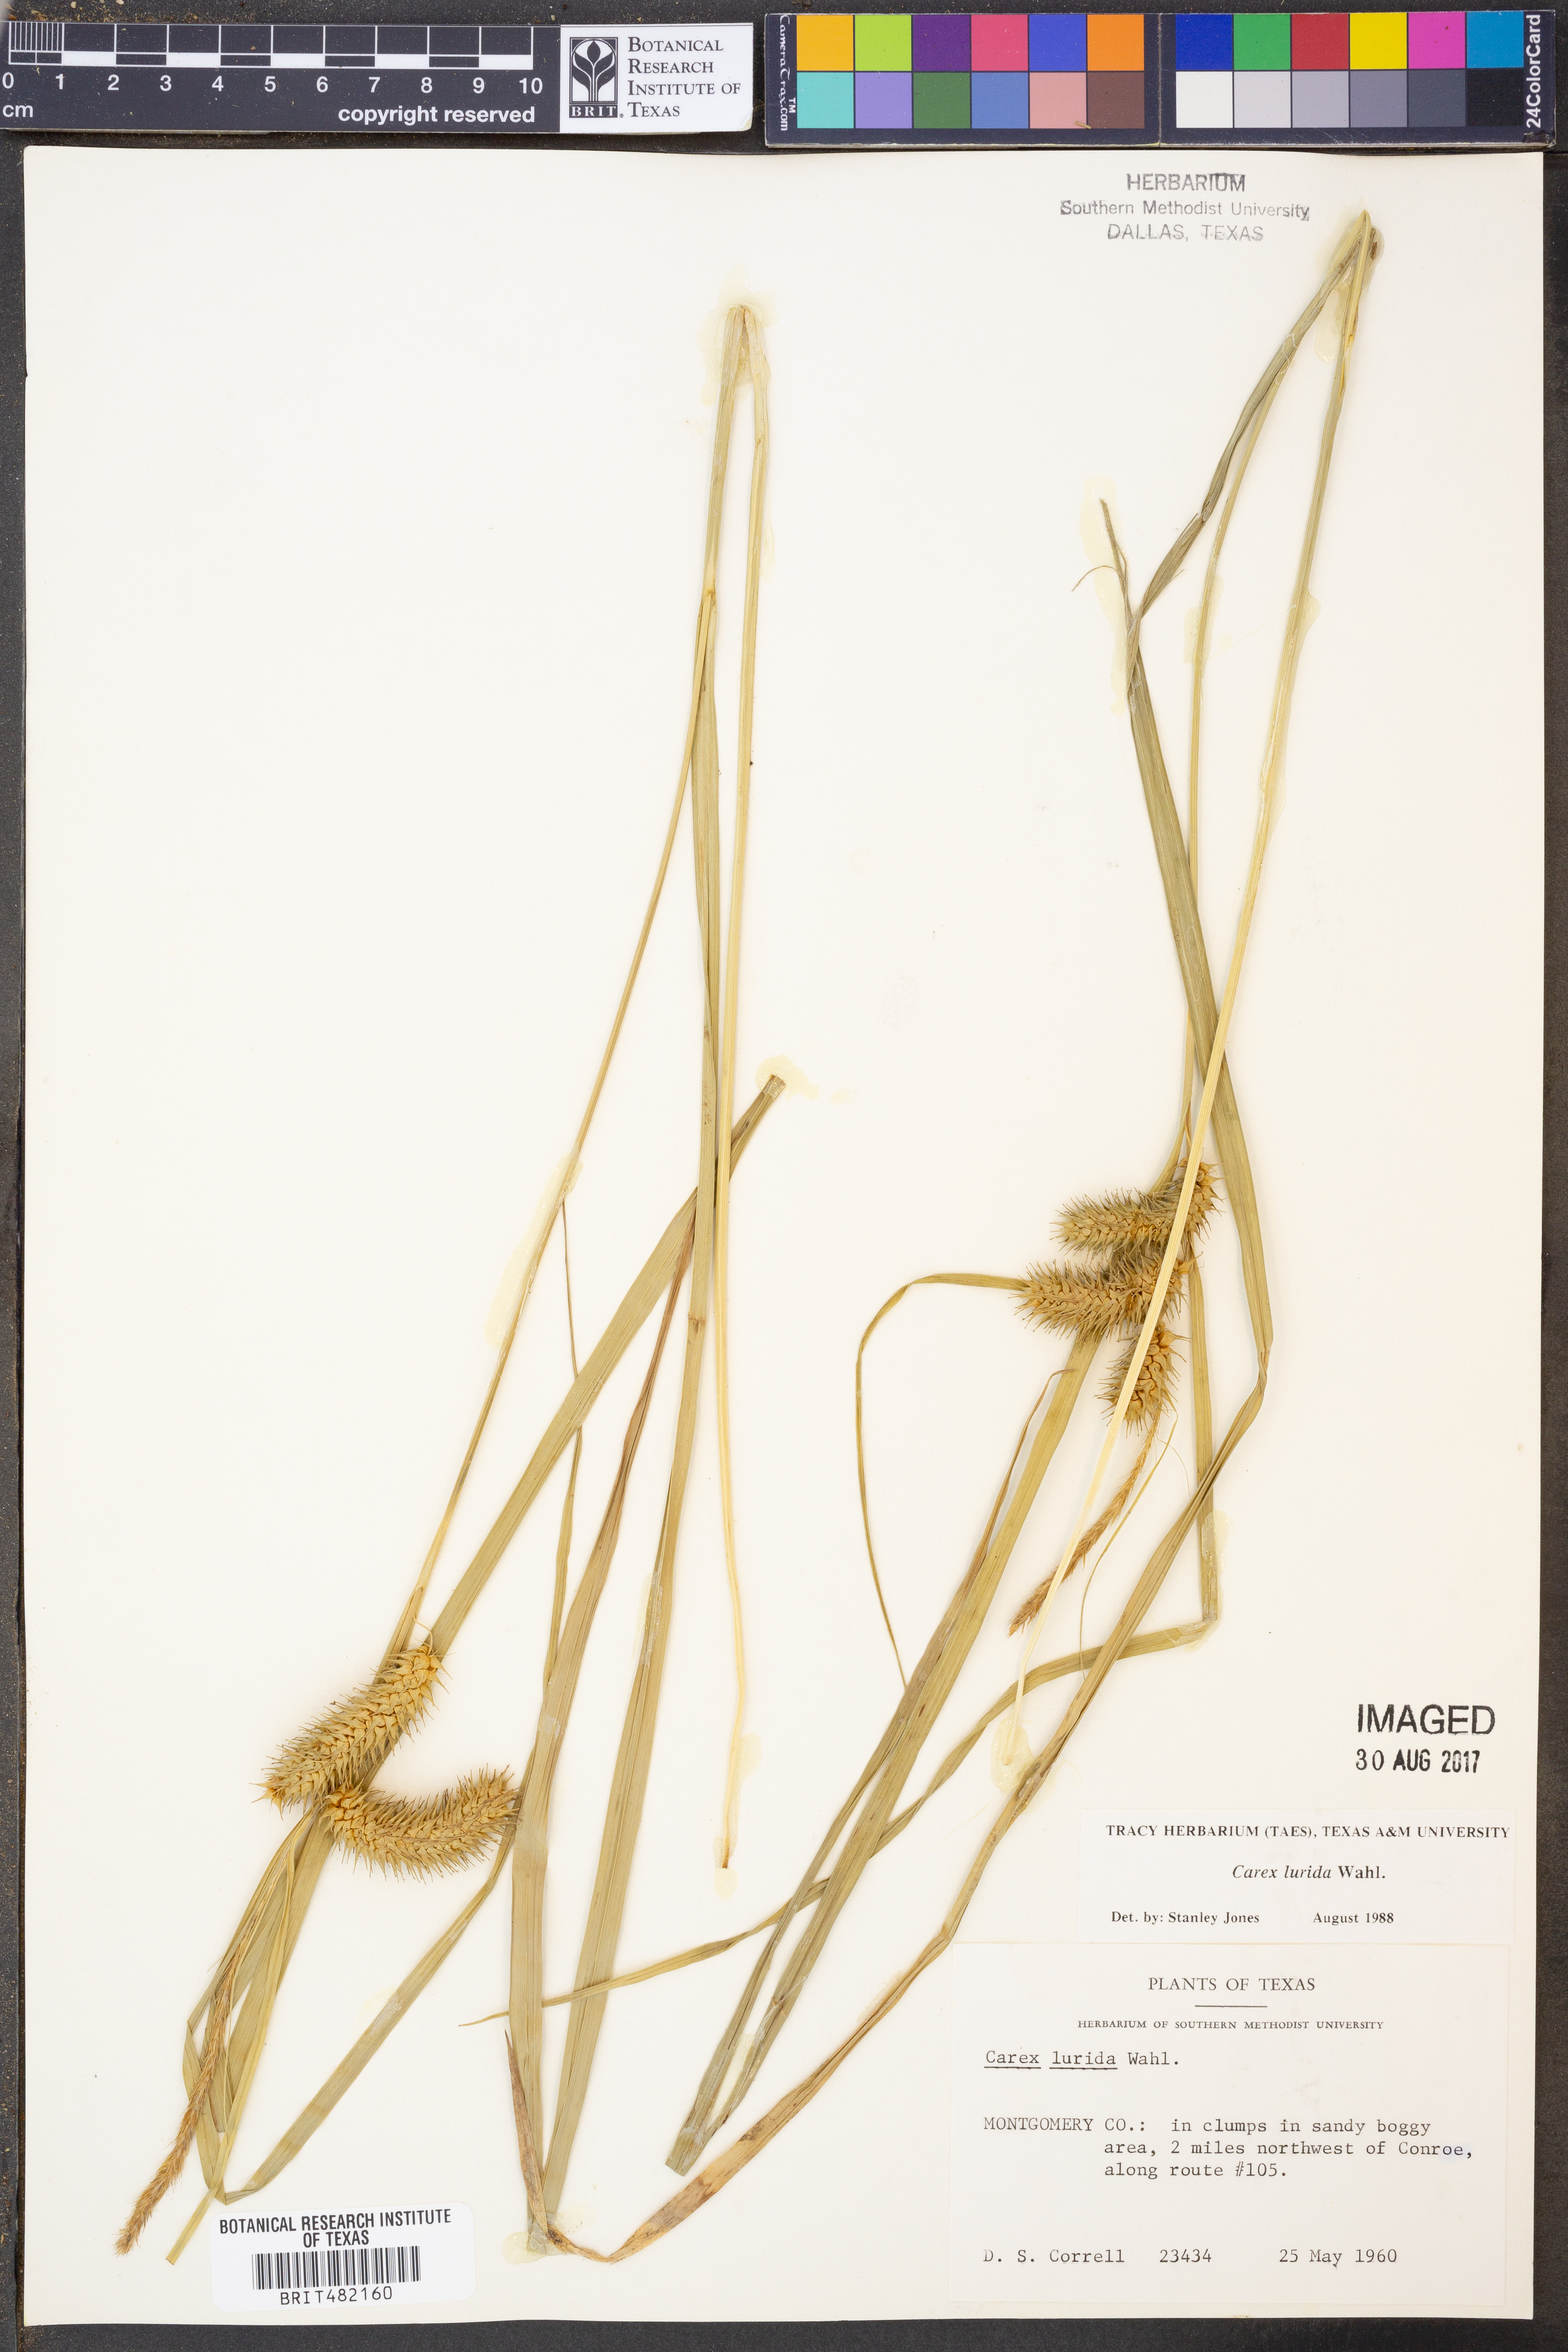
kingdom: Plantae
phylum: Tracheophyta
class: Liliopsida
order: Poales
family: Cyperaceae
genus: Carex
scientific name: Carex lurida
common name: Sallow sedge
